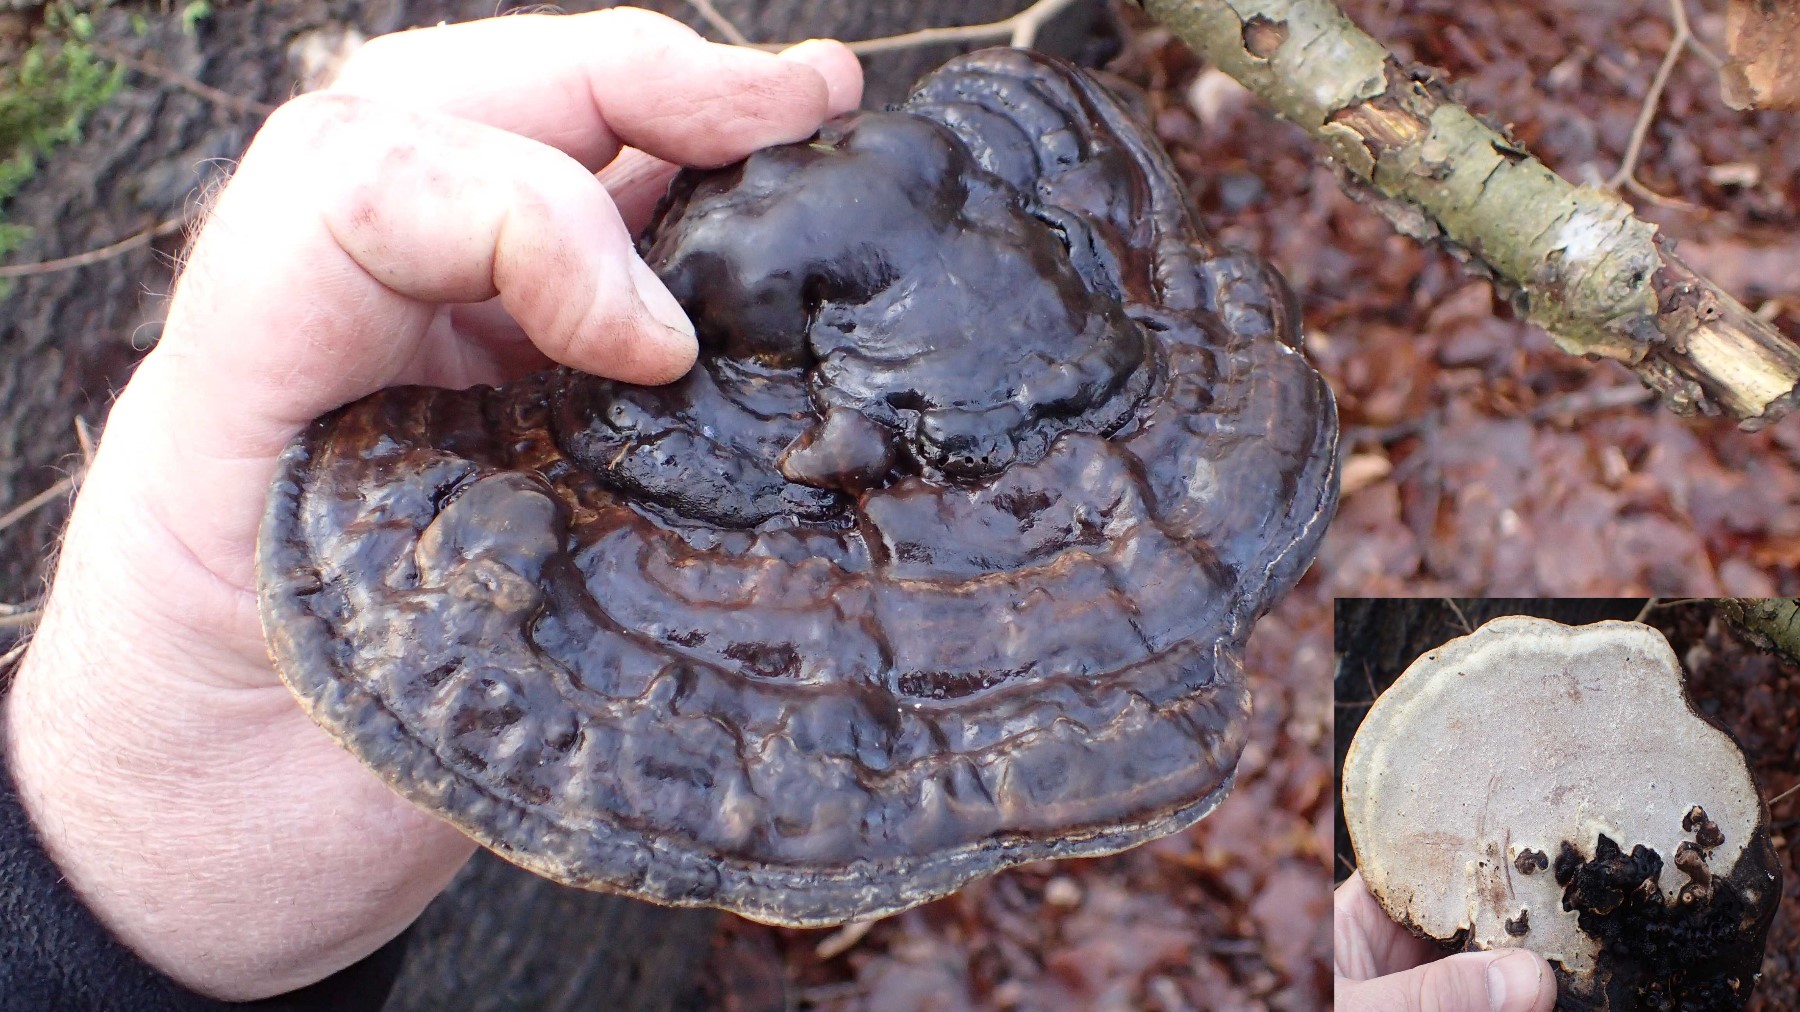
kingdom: Fungi
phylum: Basidiomycota
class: Agaricomycetes
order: Polyporales
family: Polyporaceae
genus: Ganoderma
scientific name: Ganoderma applanatum
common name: flad lakporesvamp
